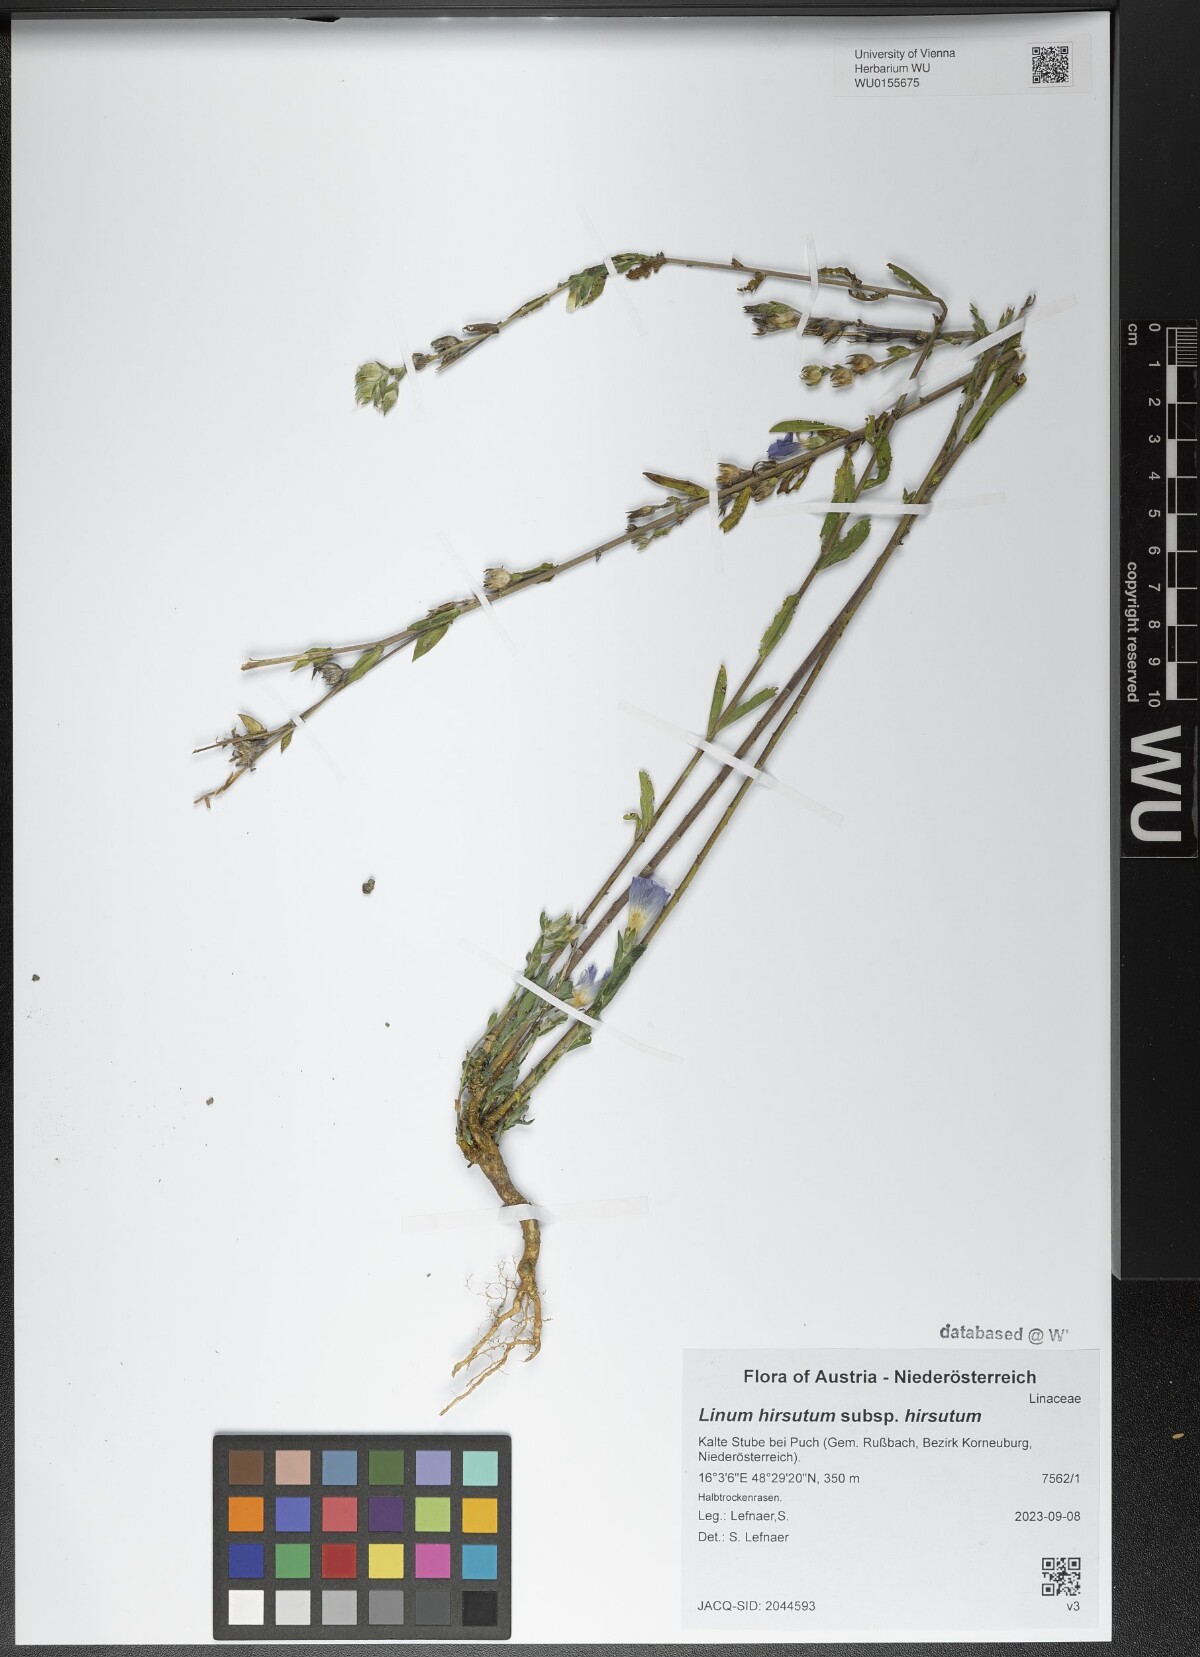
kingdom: Plantae
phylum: Tracheophyta
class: Magnoliopsida
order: Malpighiales
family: Linaceae
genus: Linum
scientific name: Linum hirsutum
